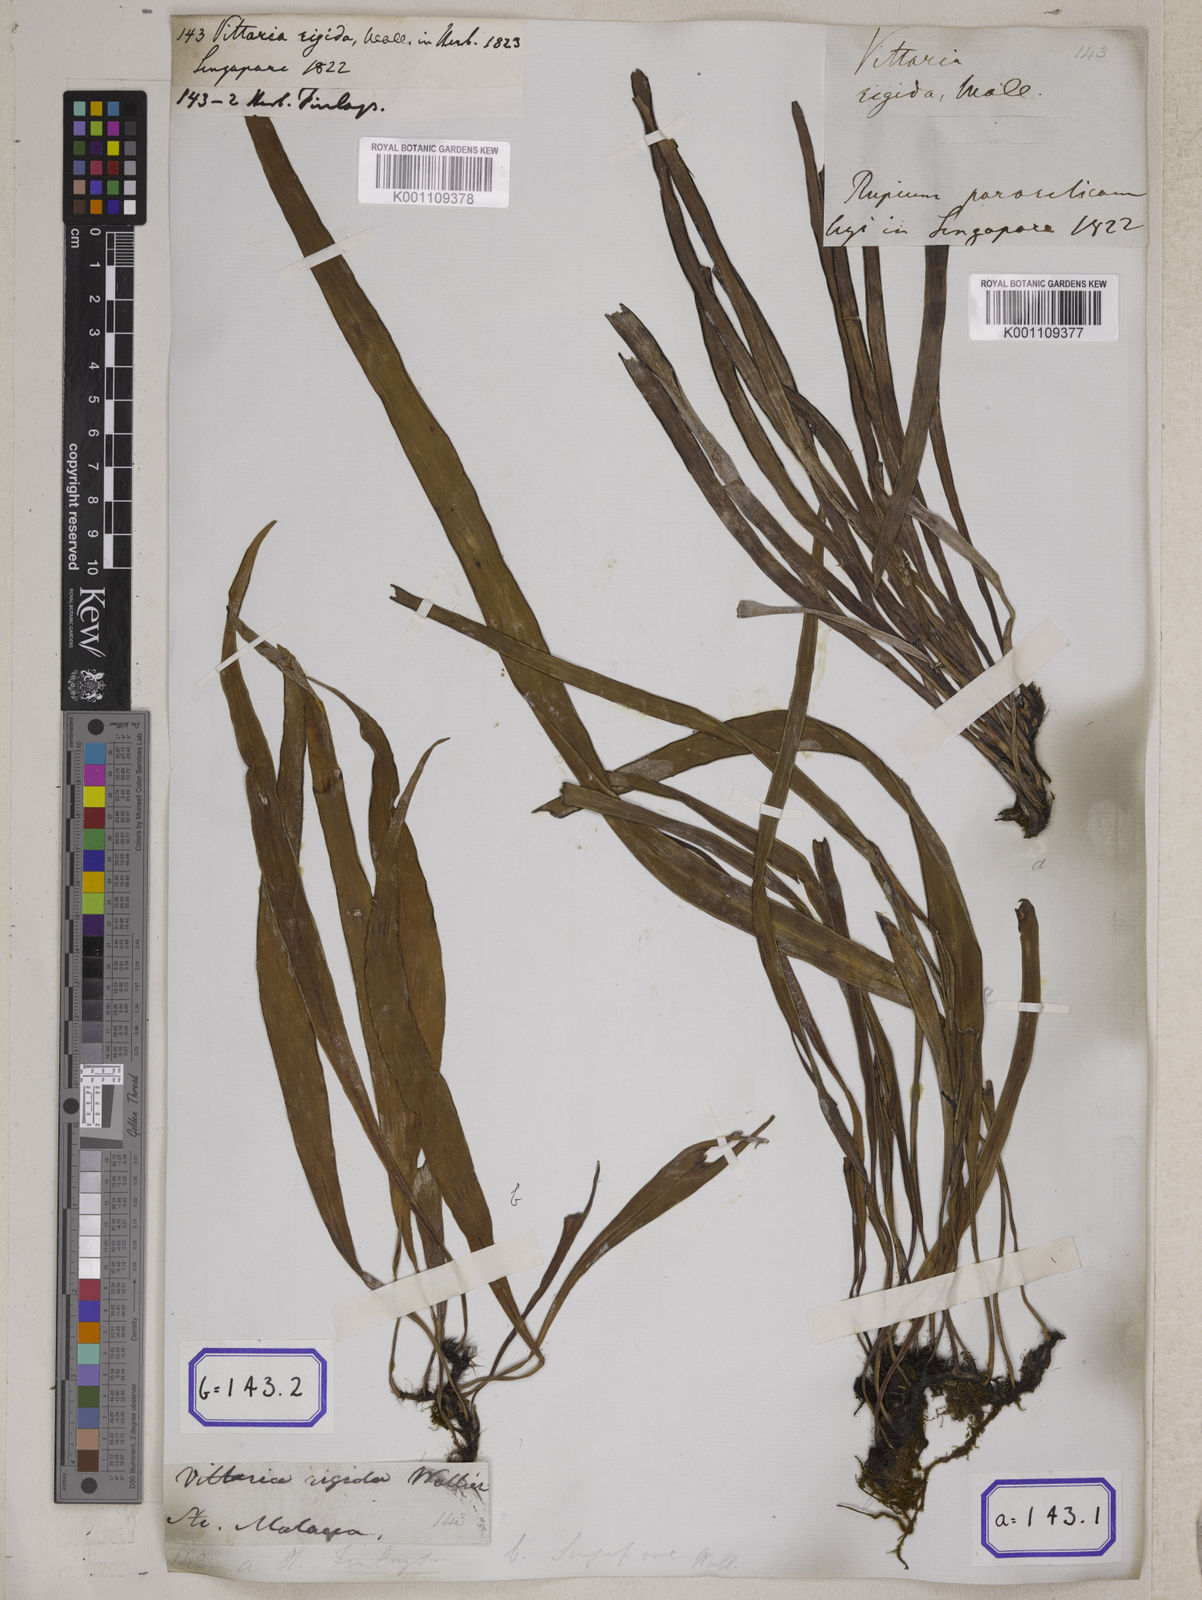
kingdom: Plantae
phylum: Tracheophyta
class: Polypodiopsida
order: Polypodiales
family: Pteridaceae
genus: Vittaria
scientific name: Vittaria
